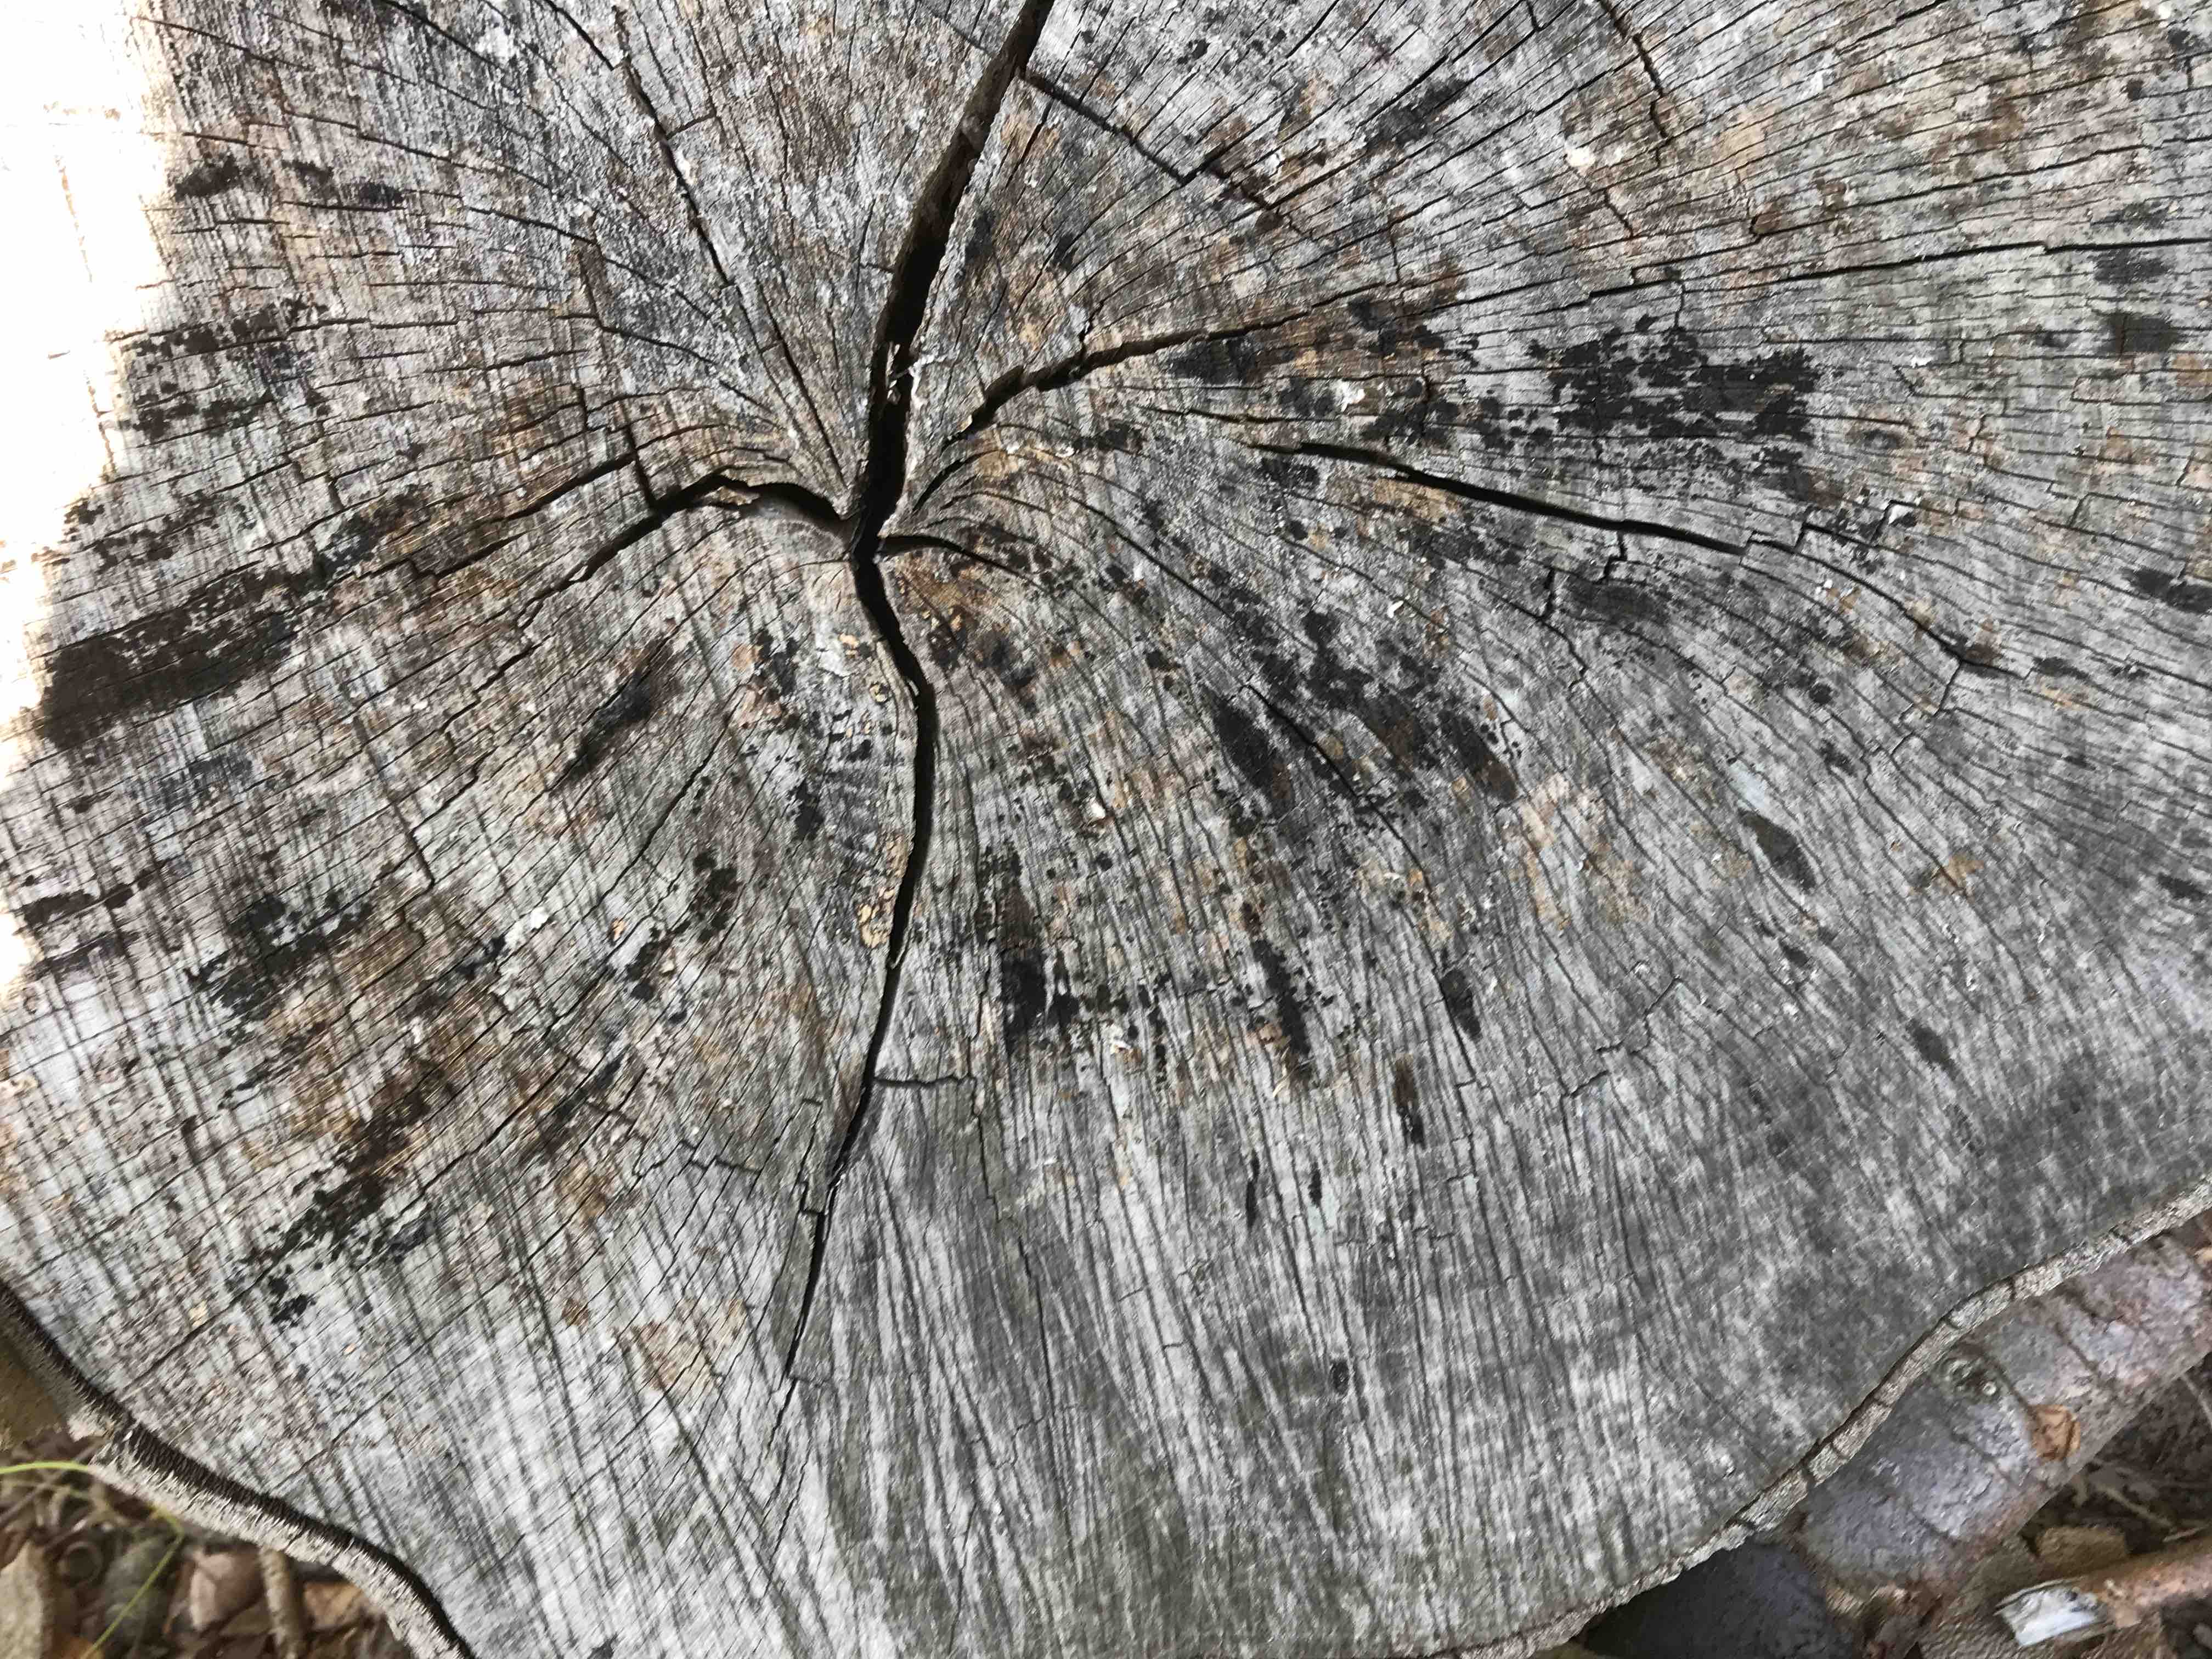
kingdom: Fungi
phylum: Ascomycota
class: Leotiomycetes
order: Helotiales
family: Helotiaceae
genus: Bispora
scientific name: Bispora pallescens
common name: måtte-snitskive
